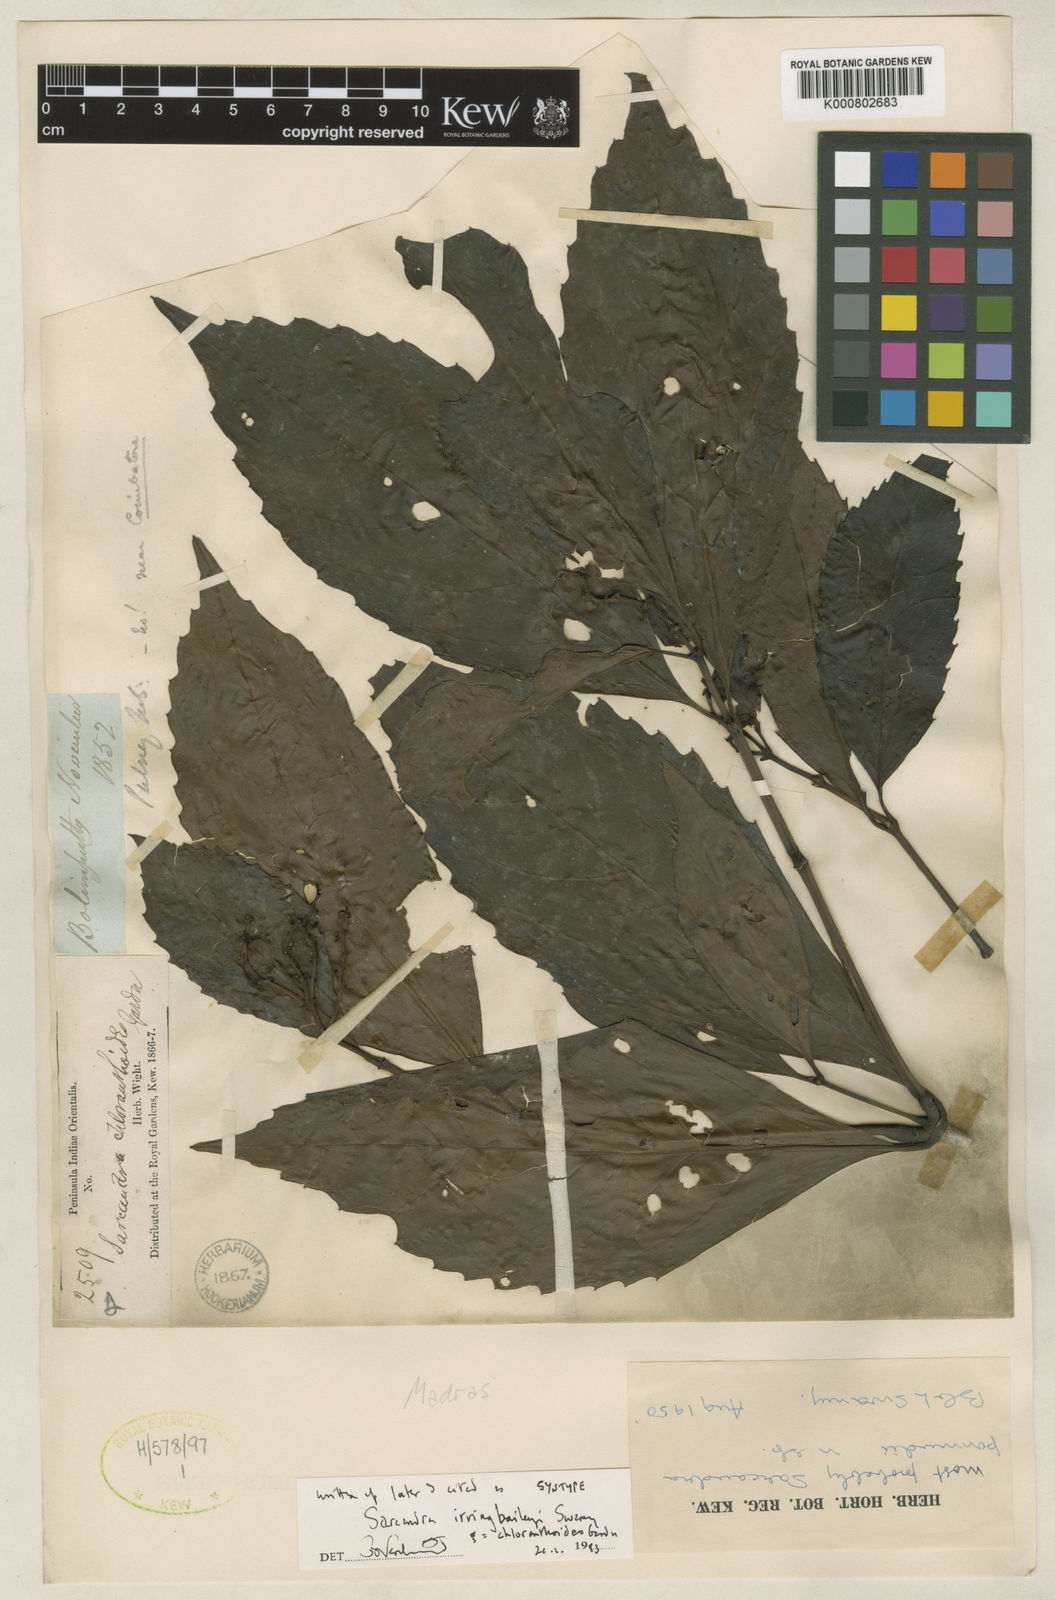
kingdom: Plantae
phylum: Tracheophyta
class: Magnoliopsida
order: Chloranthales
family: Chloranthaceae
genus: Sarcandra
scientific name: Sarcandra chloranthoides
